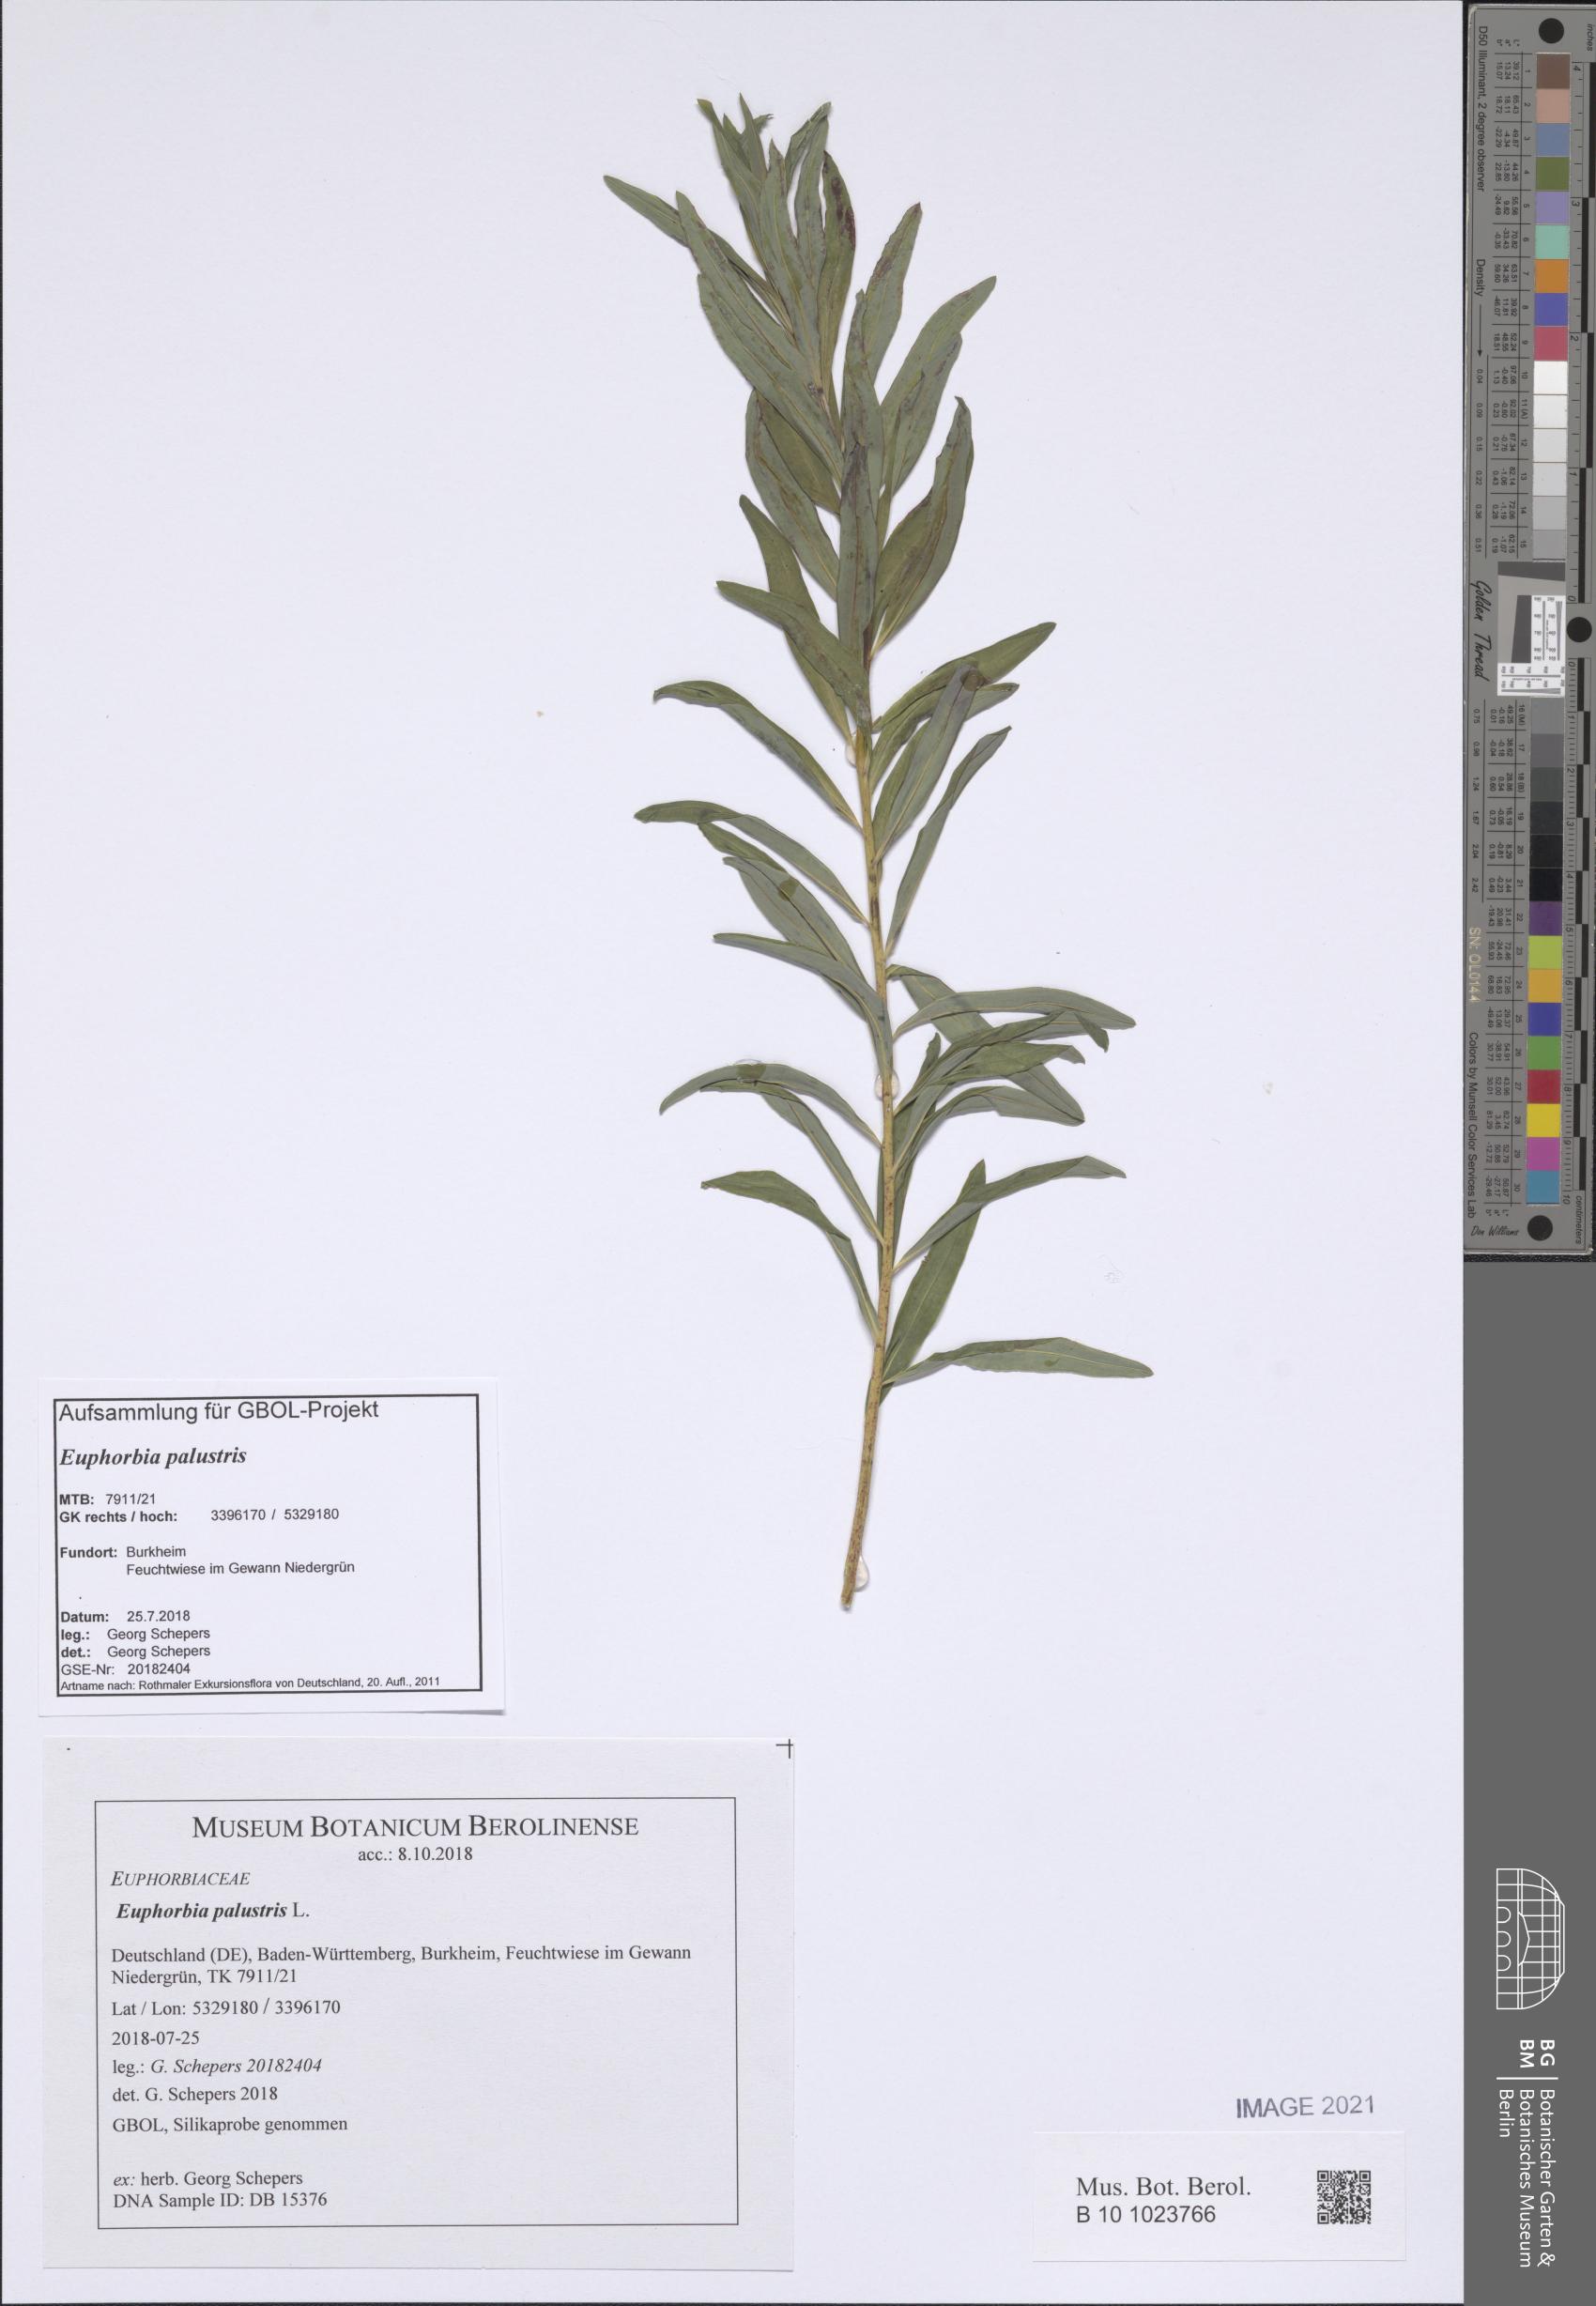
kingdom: Plantae
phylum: Tracheophyta
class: Magnoliopsida
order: Malpighiales
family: Euphorbiaceae
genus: Euphorbia
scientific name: Euphorbia palustris
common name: Marsh spurge
